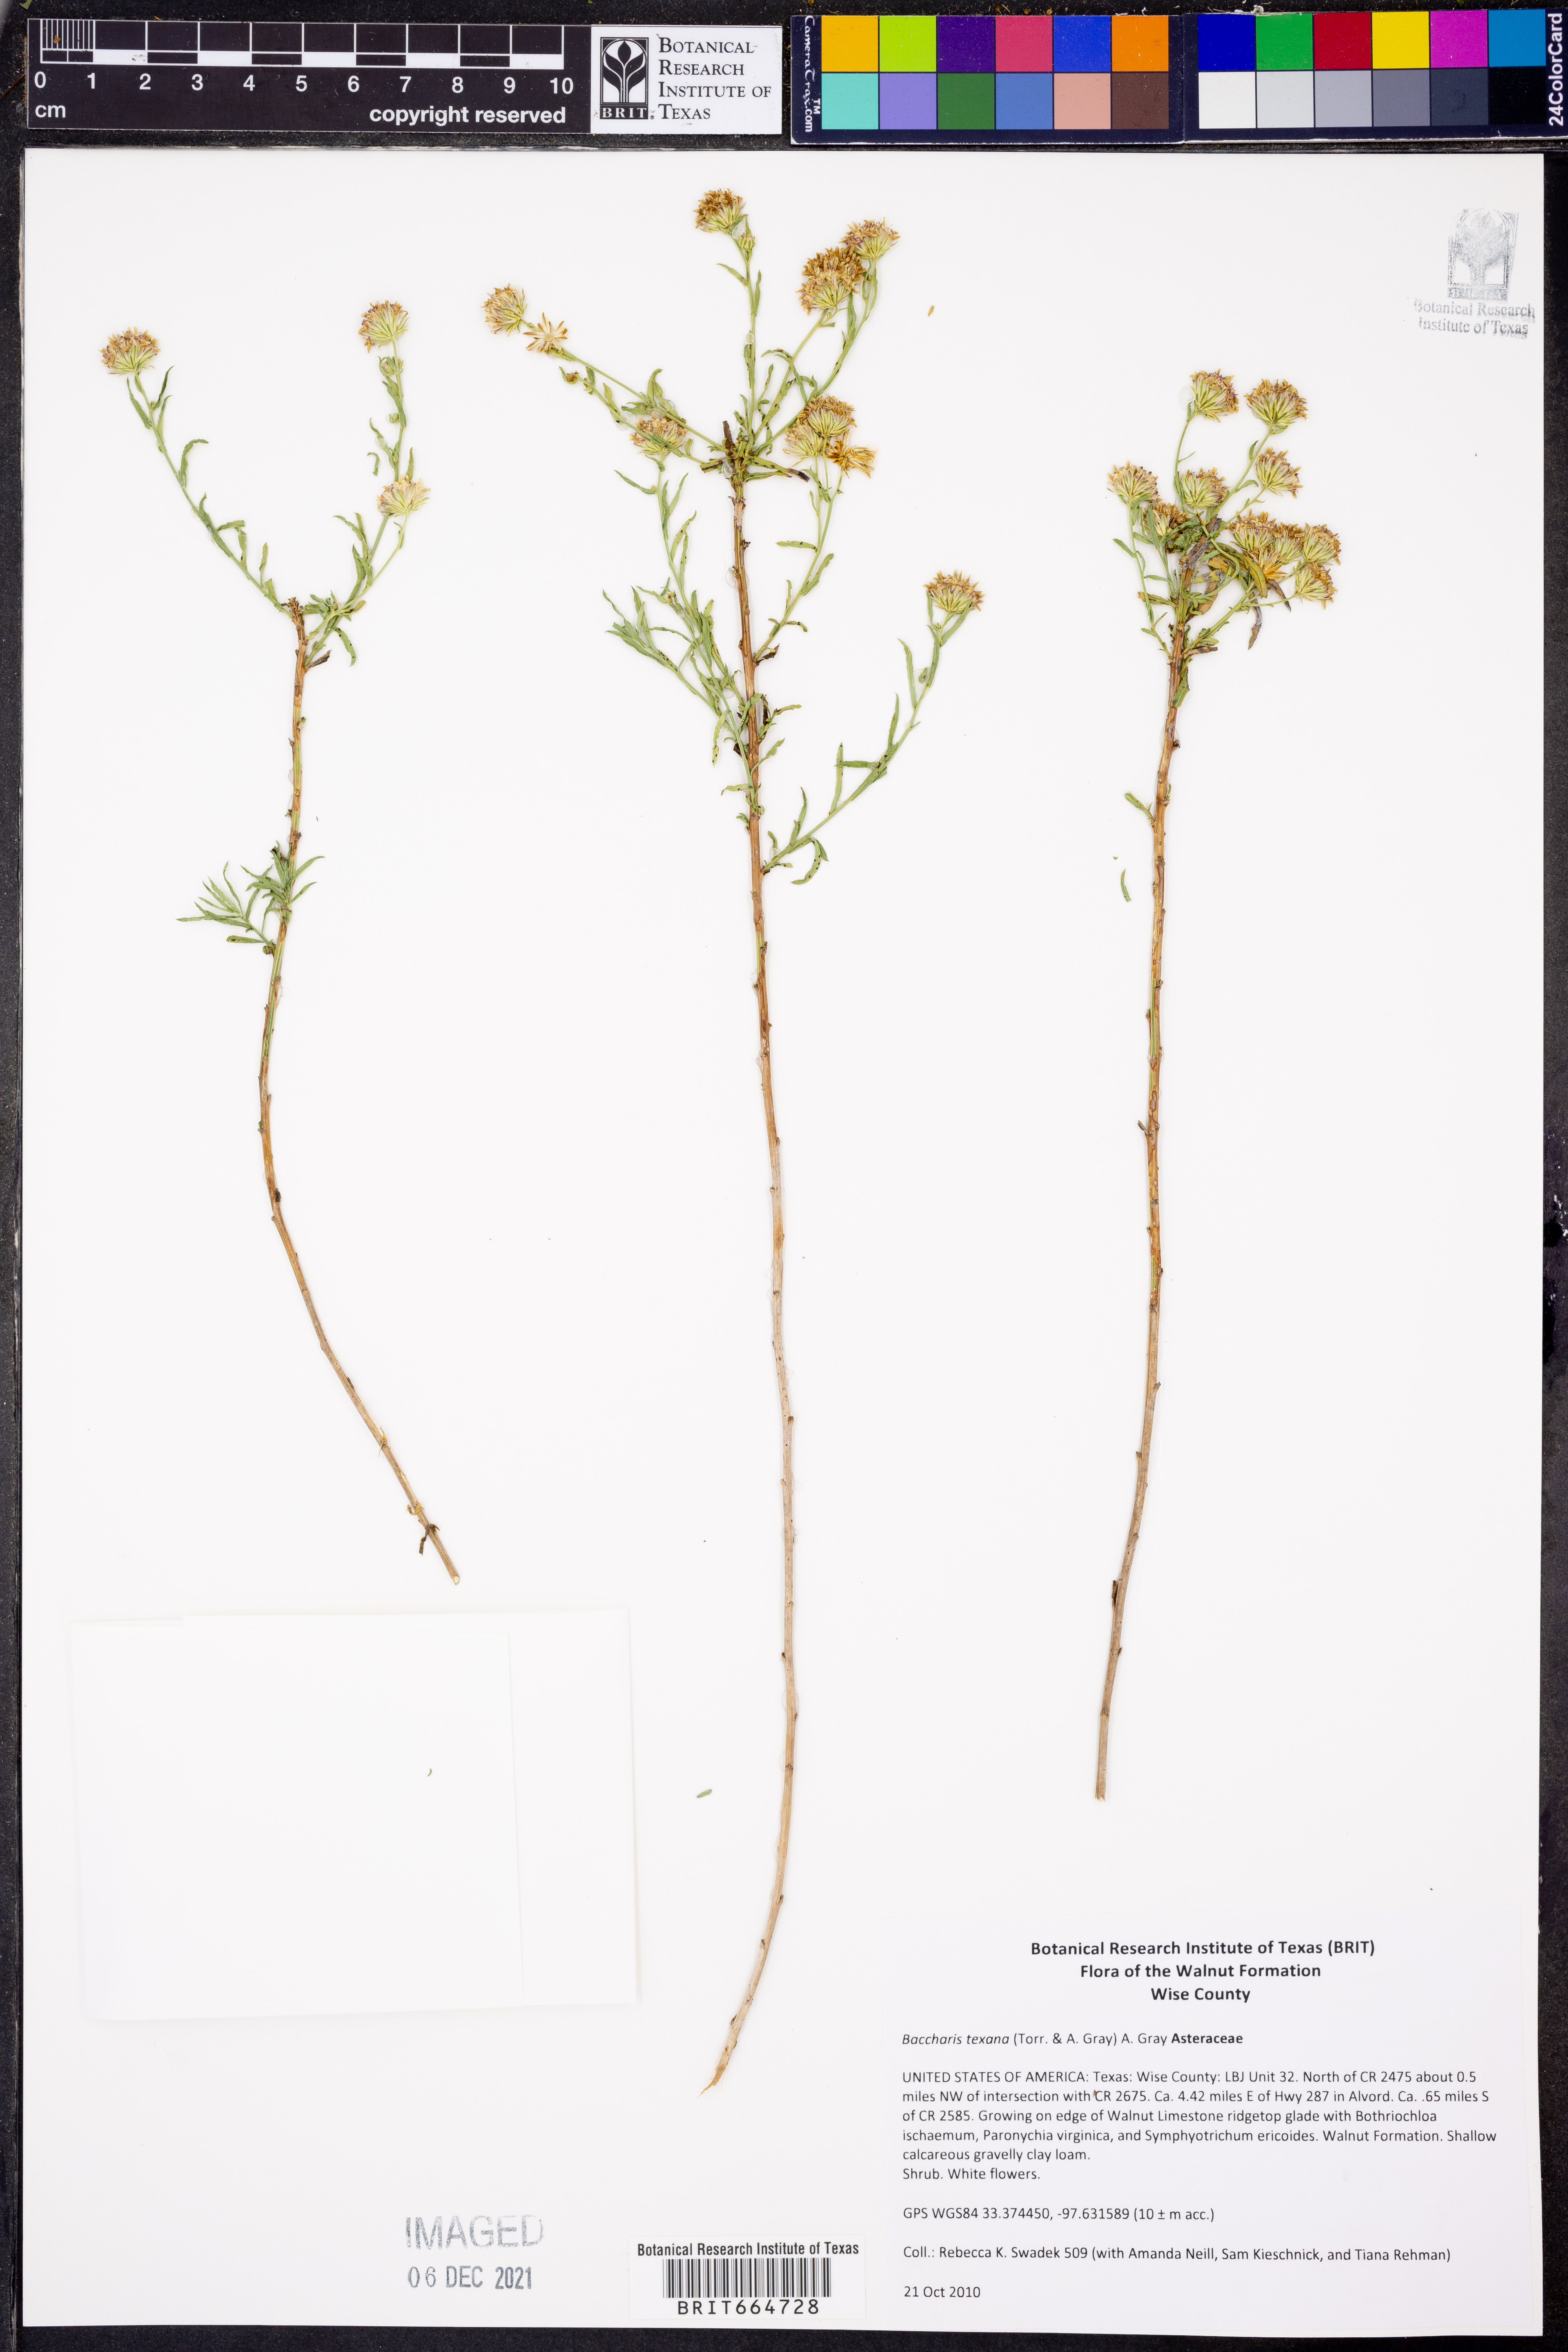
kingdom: Plantae
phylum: Tracheophyta
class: Magnoliopsida
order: Asterales
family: Asteraceae
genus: Baccharis
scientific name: Baccharis texana
